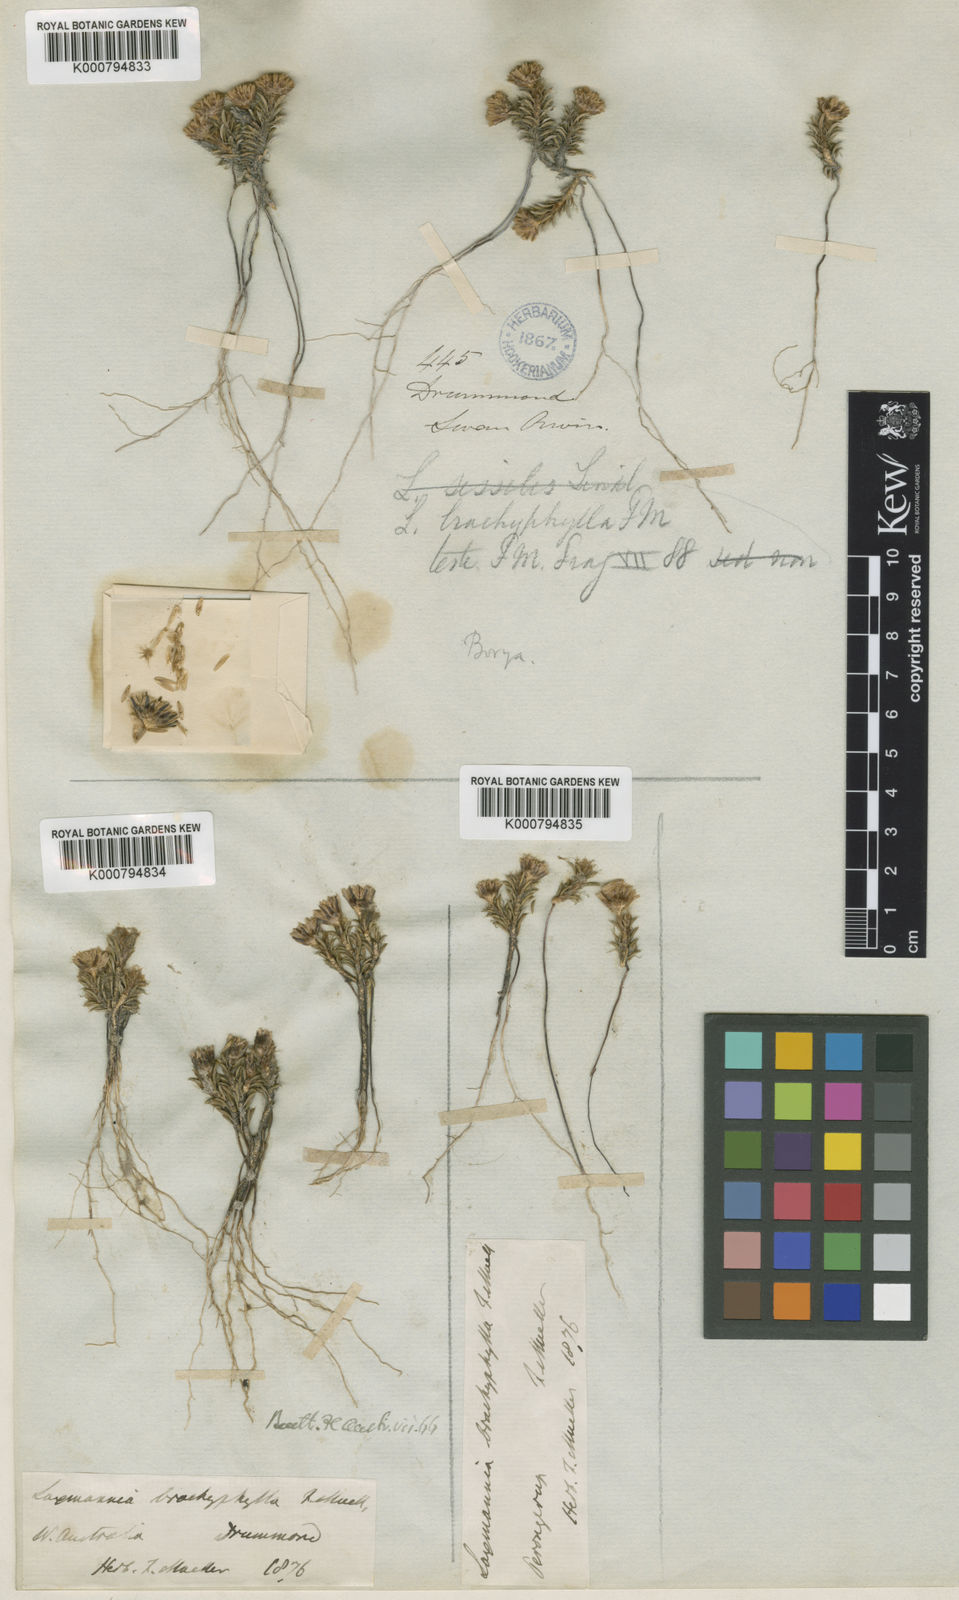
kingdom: Plantae
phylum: Tracheophyta
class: Liliopsida
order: Asparagales
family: Asparagaceae
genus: Laxmannia
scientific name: Laxmannia brachyphylla
